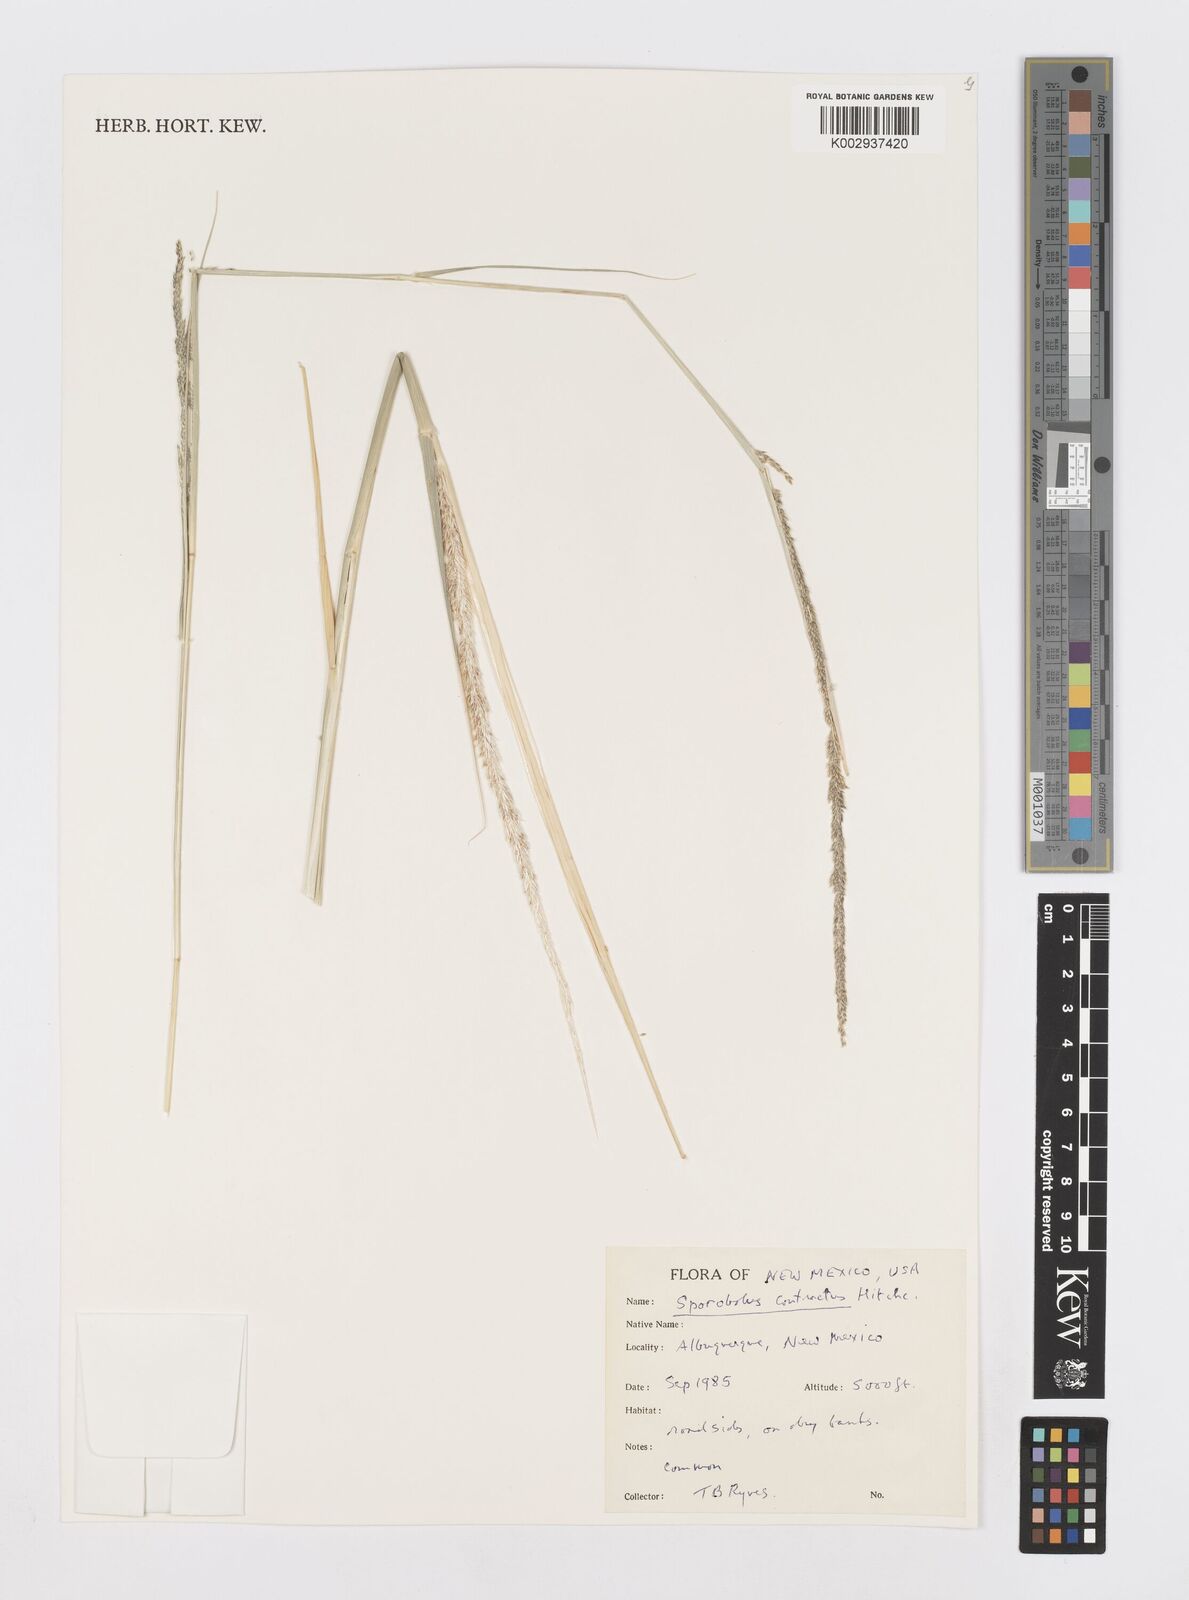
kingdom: Plantae
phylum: Tracheophyta
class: Liliopsida
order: Poales
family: Poaceae
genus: Sporobolus
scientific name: Sporobolus contractus
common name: Spike dropseed
